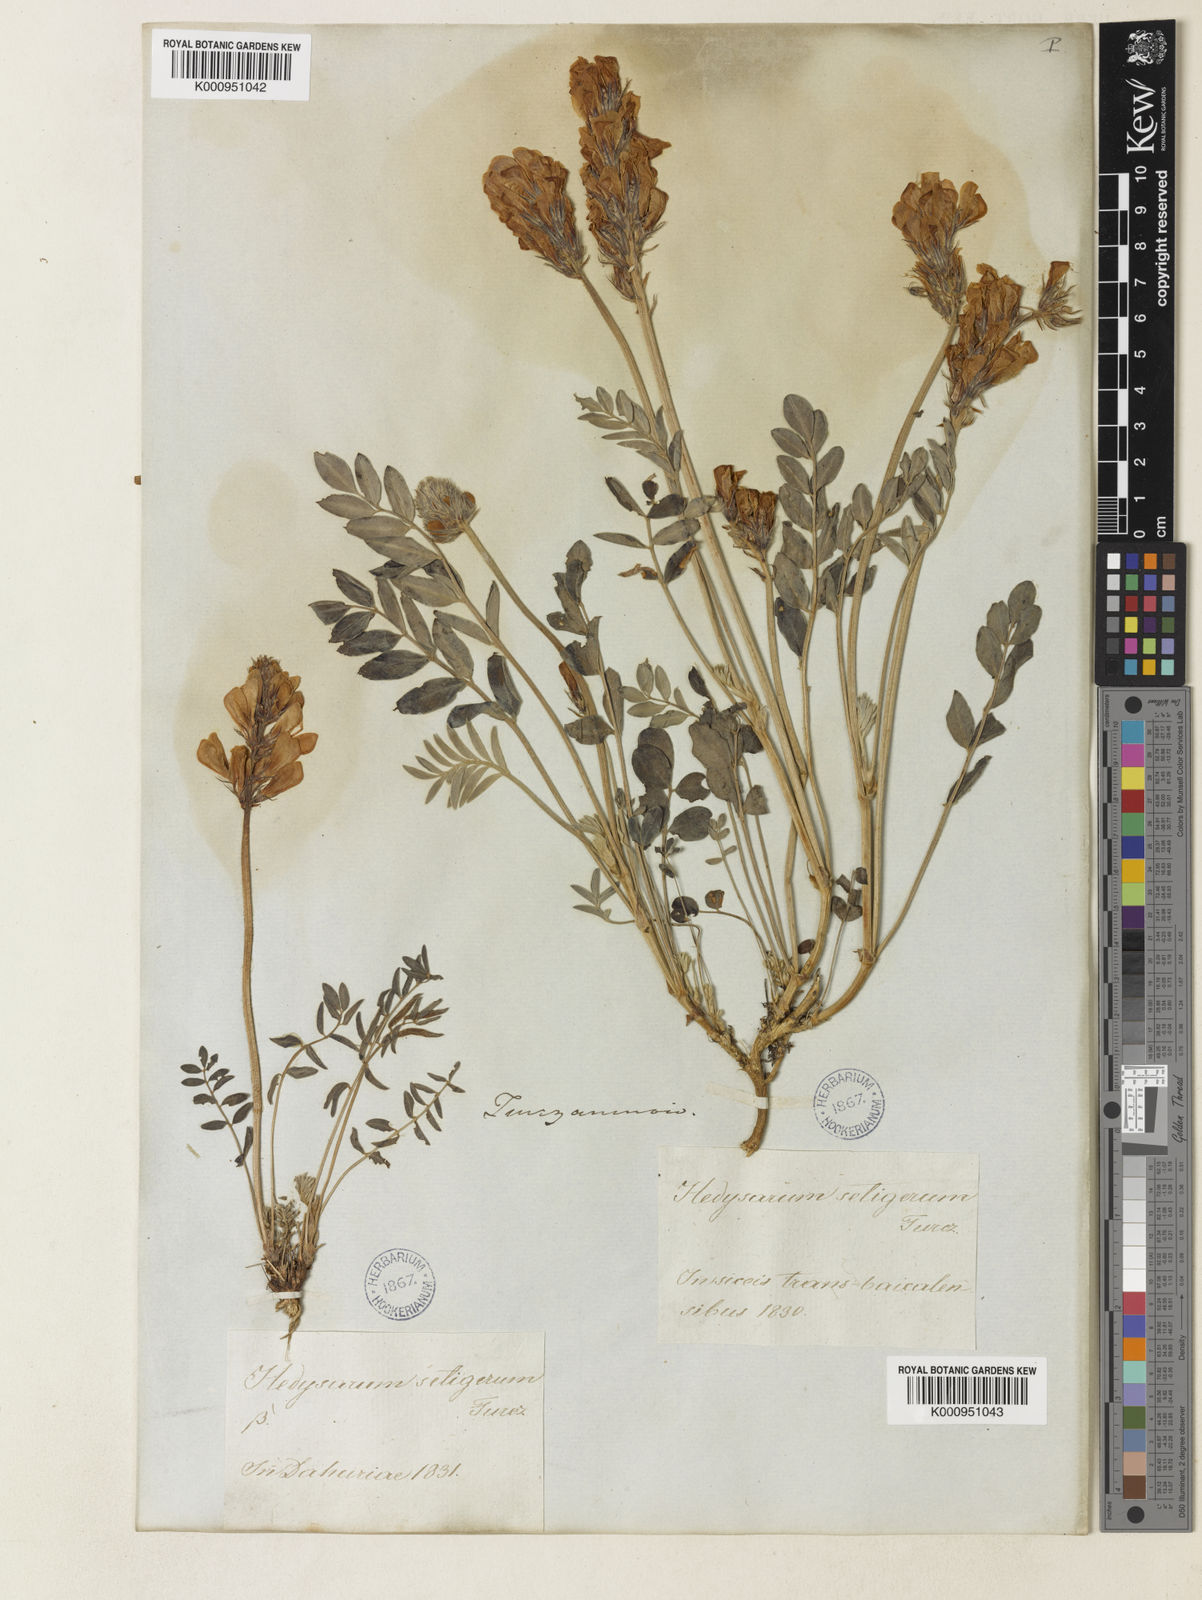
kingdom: Plantae
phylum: Tracheophyta
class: Magnoliopsida
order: Fabales
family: Fabaceae
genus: Hedysarum
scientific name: Hedysarum setigerum
